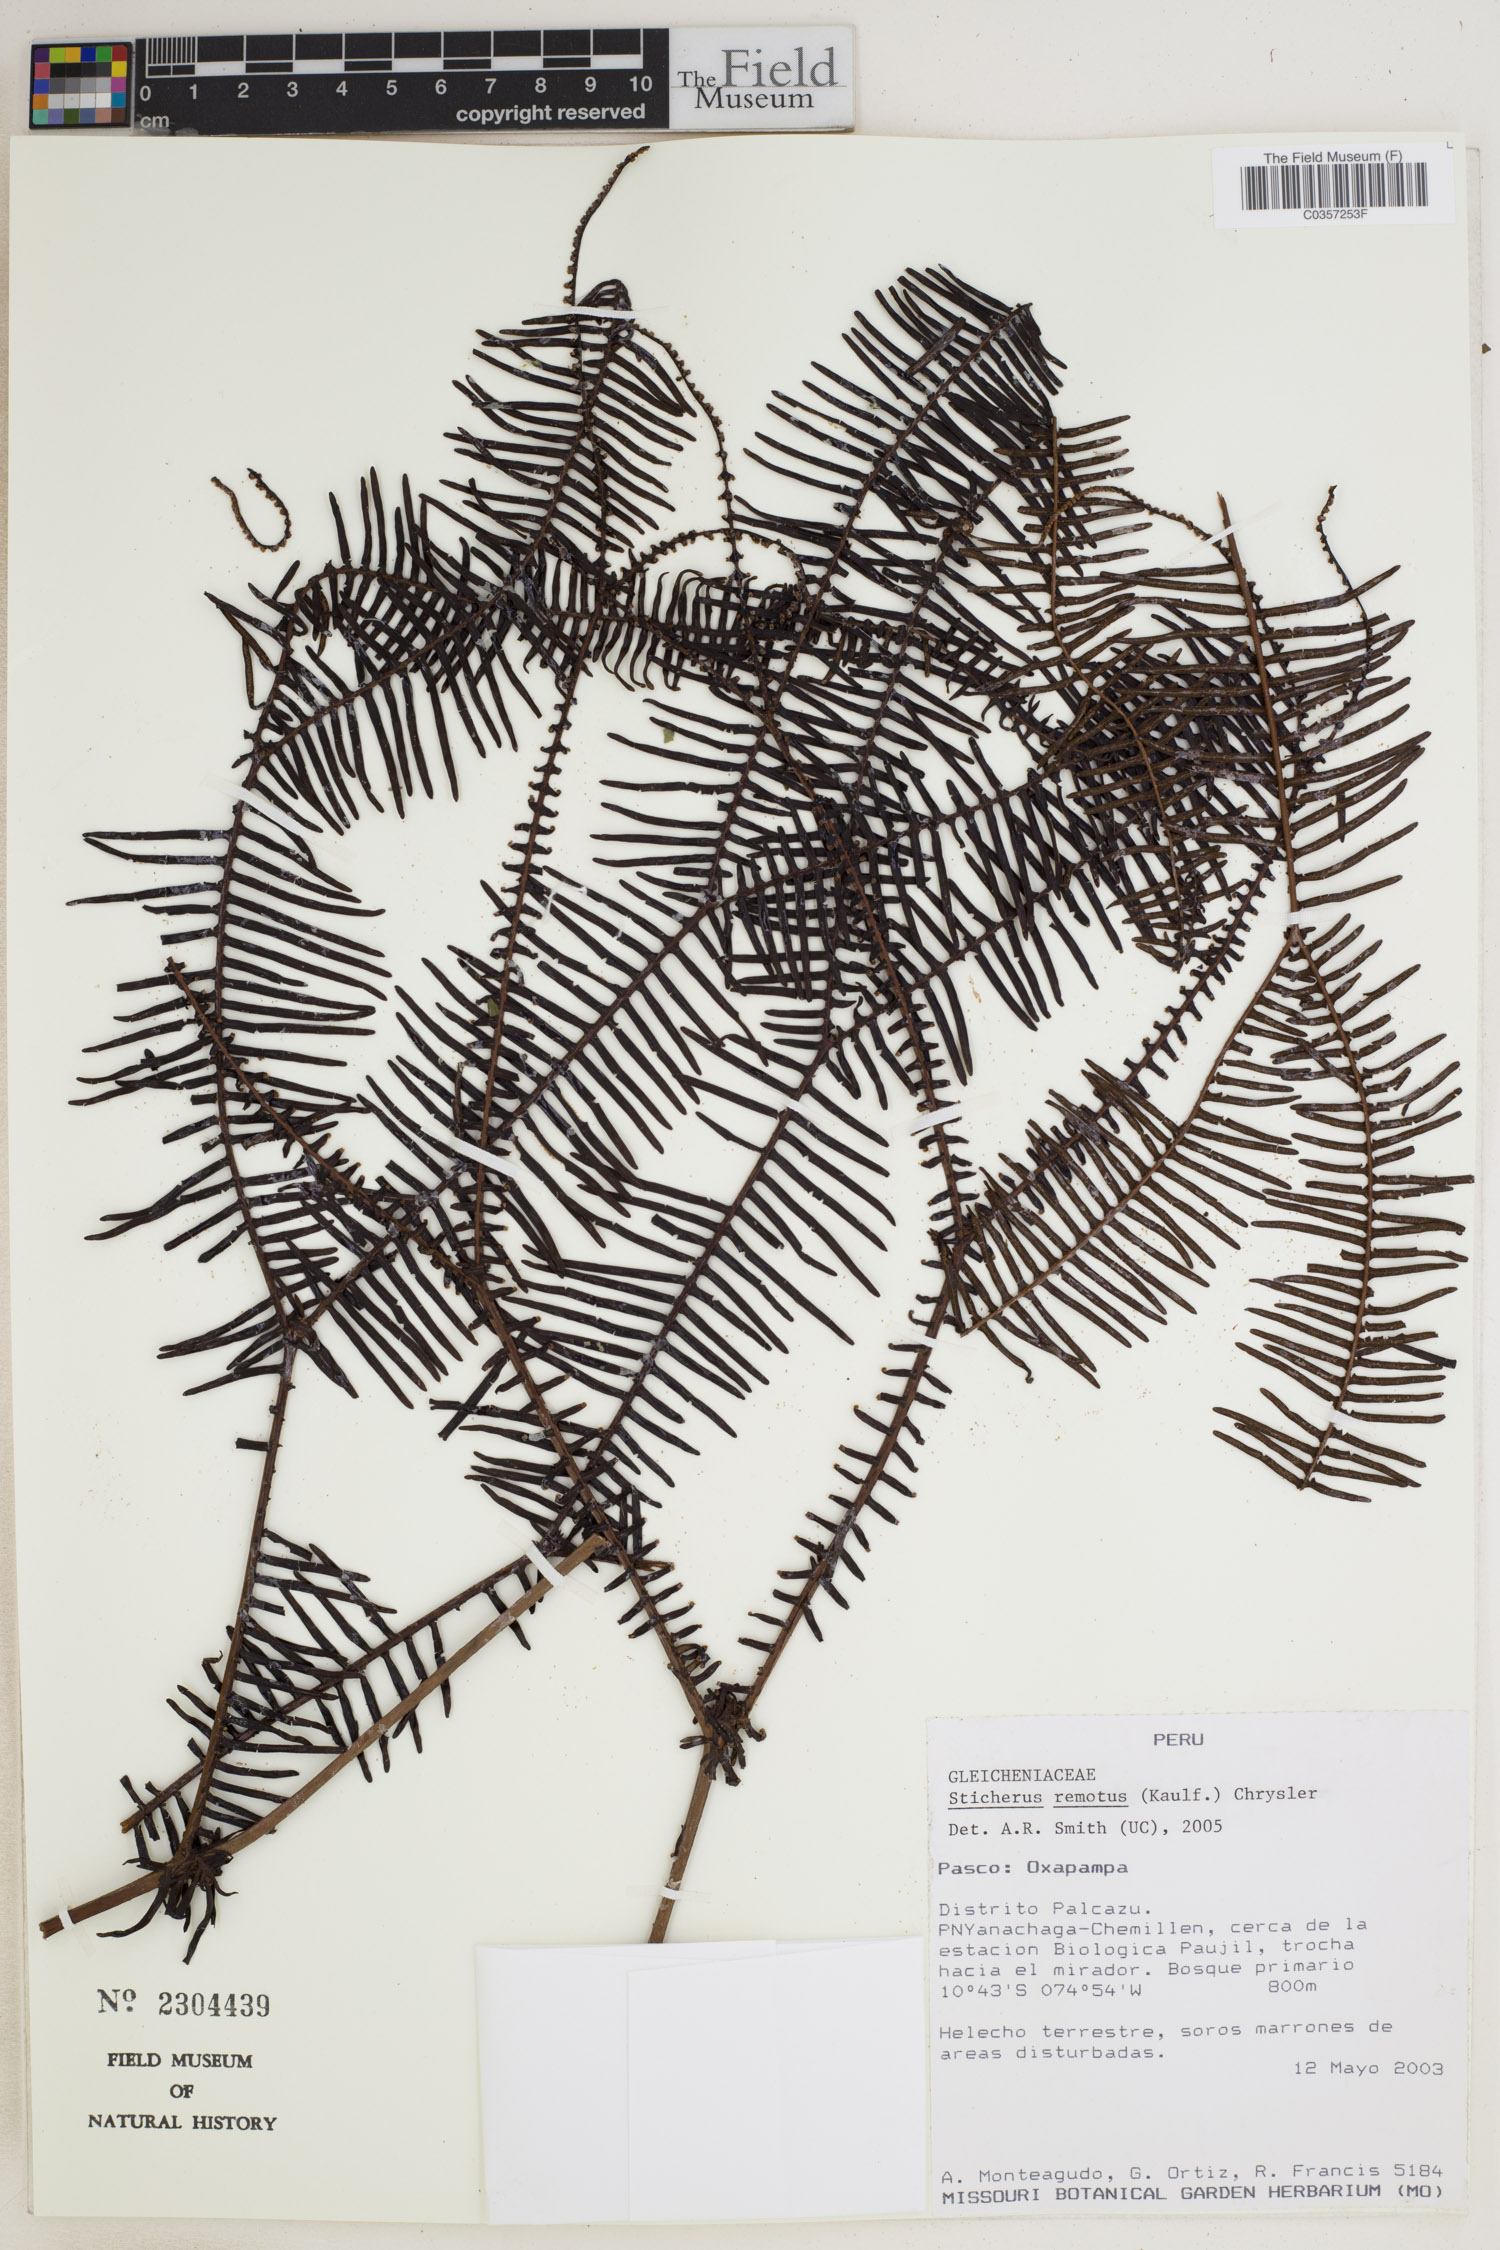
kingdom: Plantae
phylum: Tracheophyta
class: Polypodiopsida
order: Gleicheniales
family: Gleicheniaceae
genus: Sticherus
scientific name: Sticherus remotus
